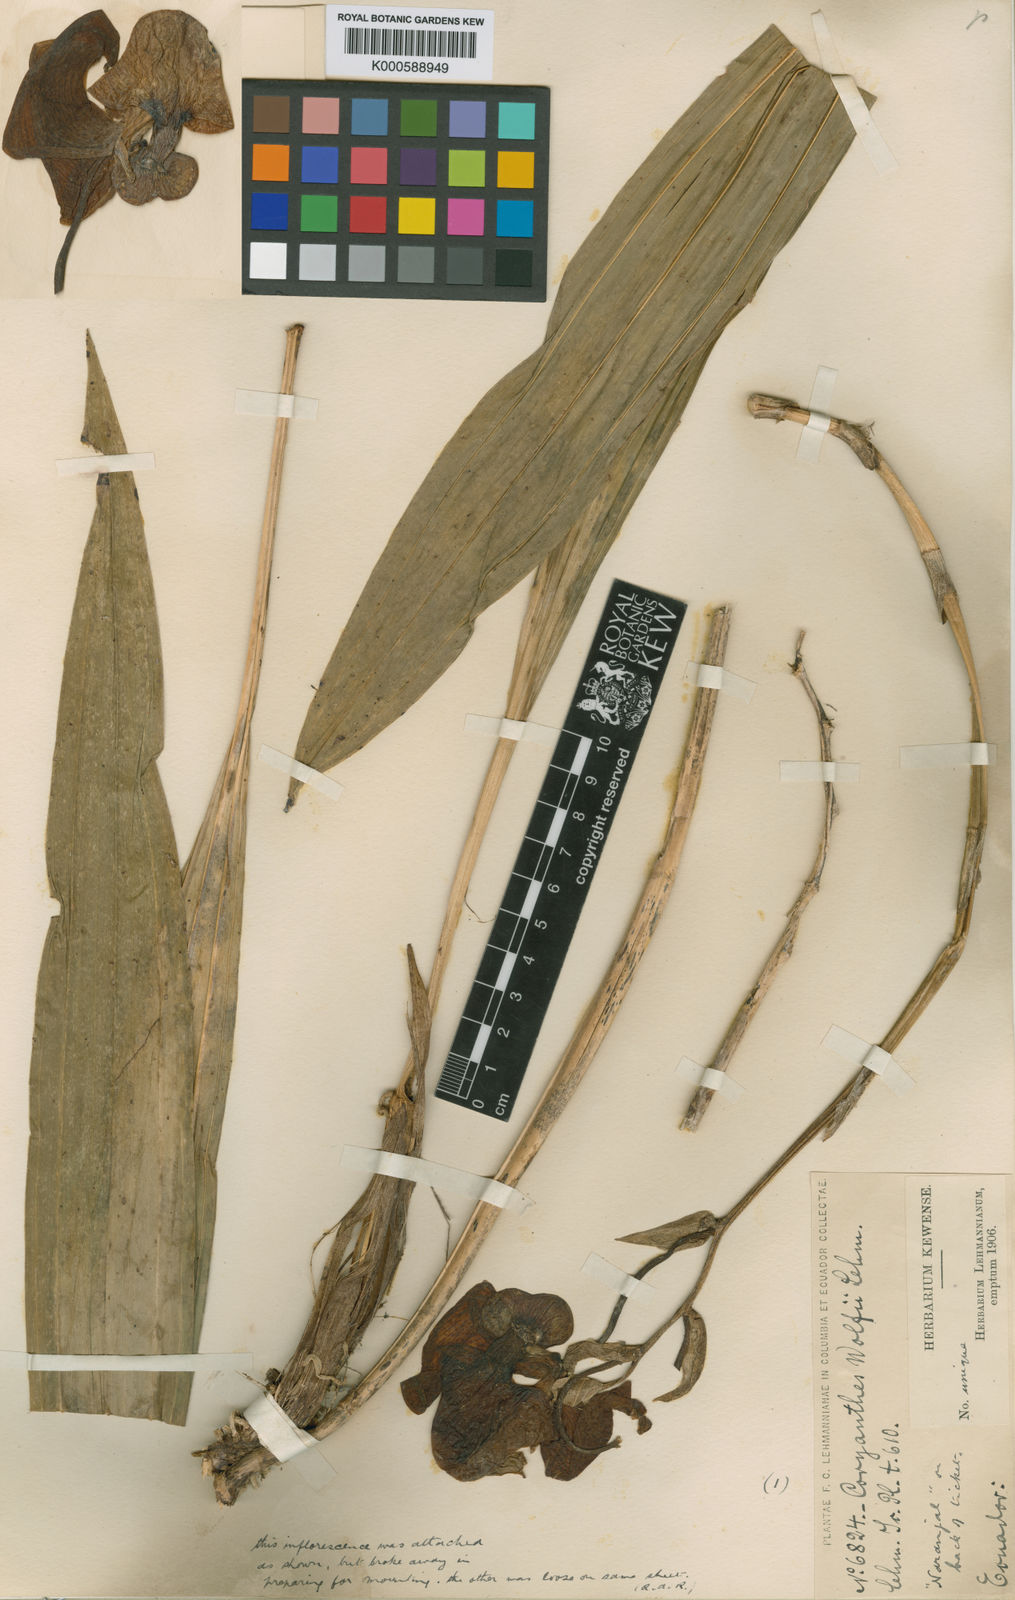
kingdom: Plantae
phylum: Tracheophyta
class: Liliopsida
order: Asparagales
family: Orchidaceae
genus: Coryanthes
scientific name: Coryanthes elegantium
